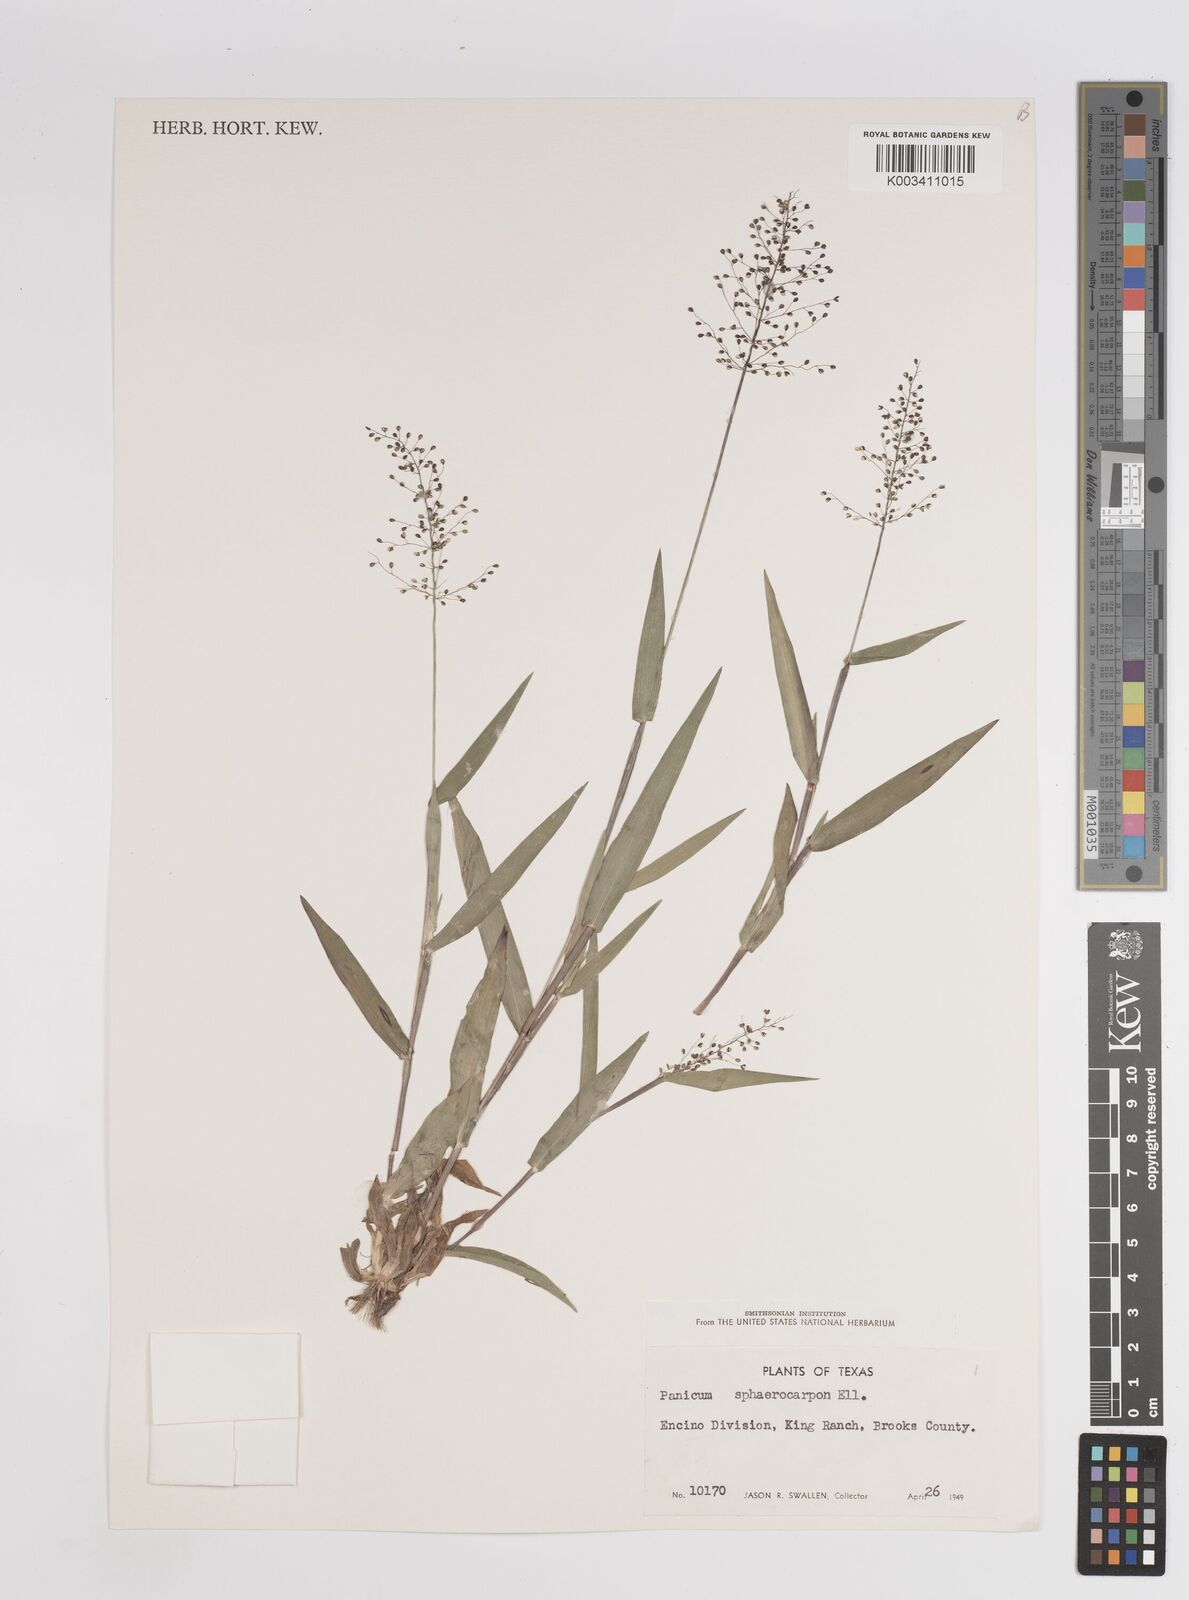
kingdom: Plantae
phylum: Tracheophyta
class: Liliopsida
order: Poales
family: Poaceae
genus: Setaria
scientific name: Setaria tenax
